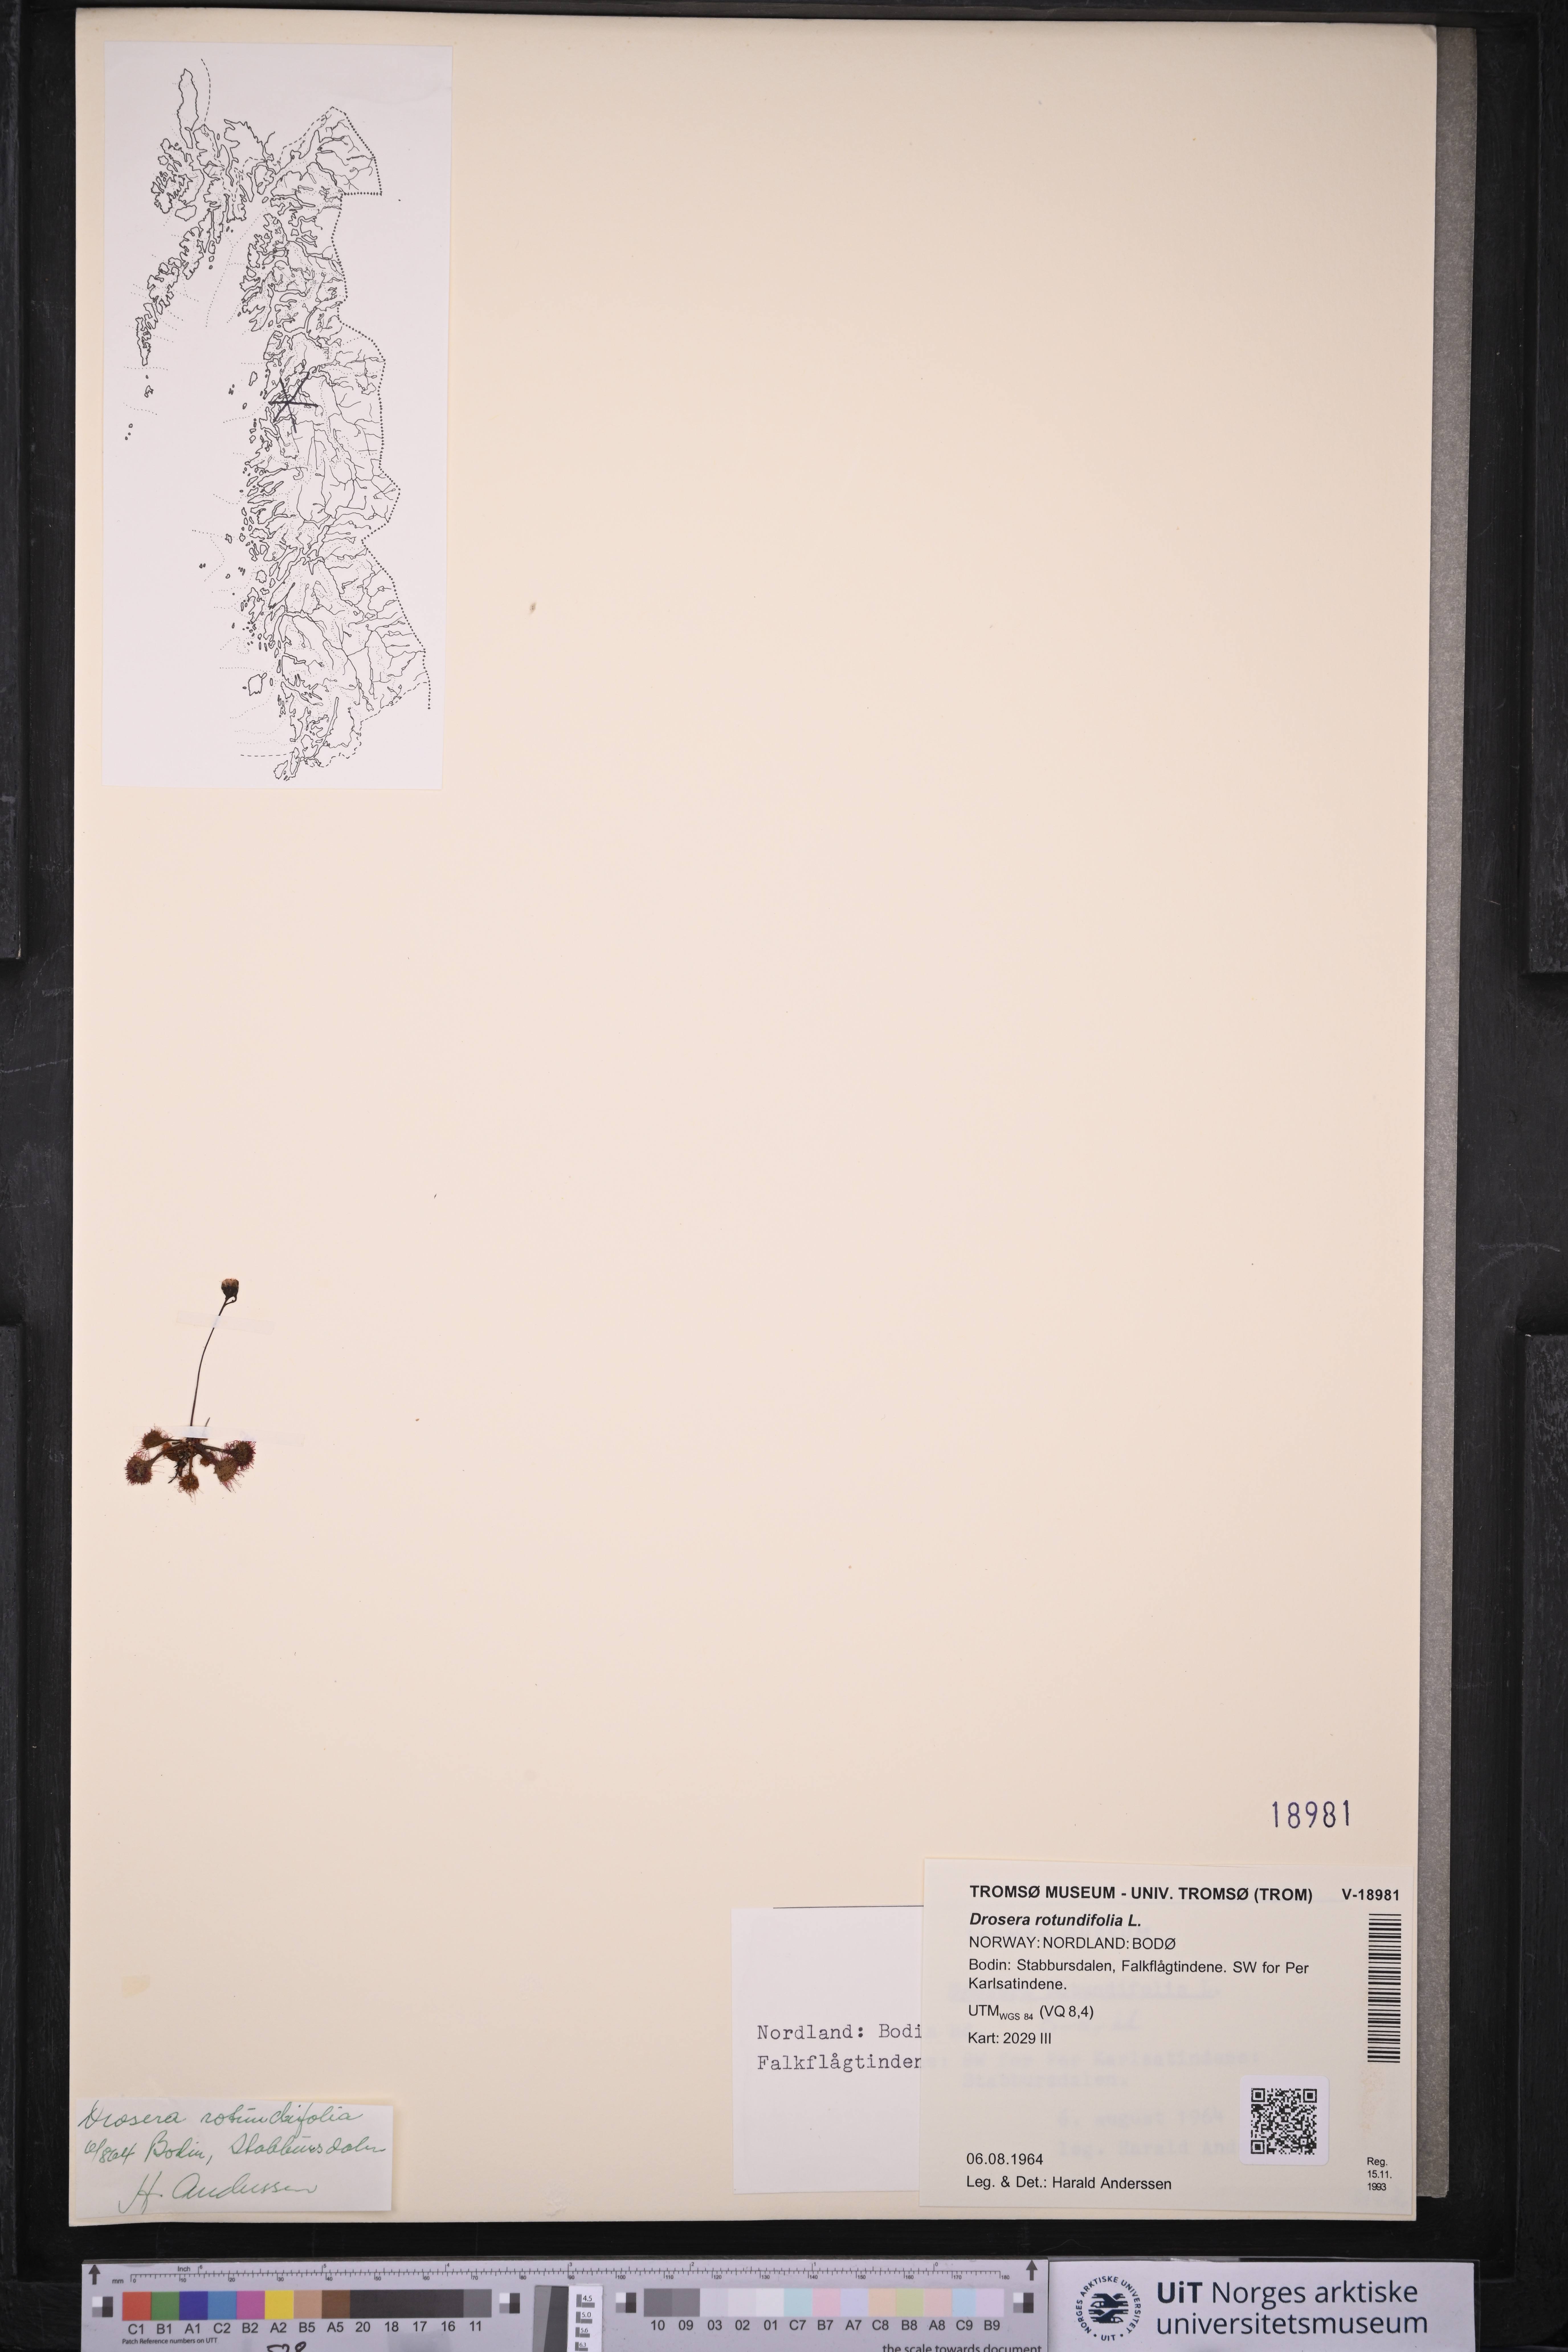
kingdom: Plantae
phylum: Tracheophyta
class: Magnoliopsida
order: Caryophyllales
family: Droseraceae
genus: Drosera
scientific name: Drosera rotundifolia
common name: Round-leaved sundew
